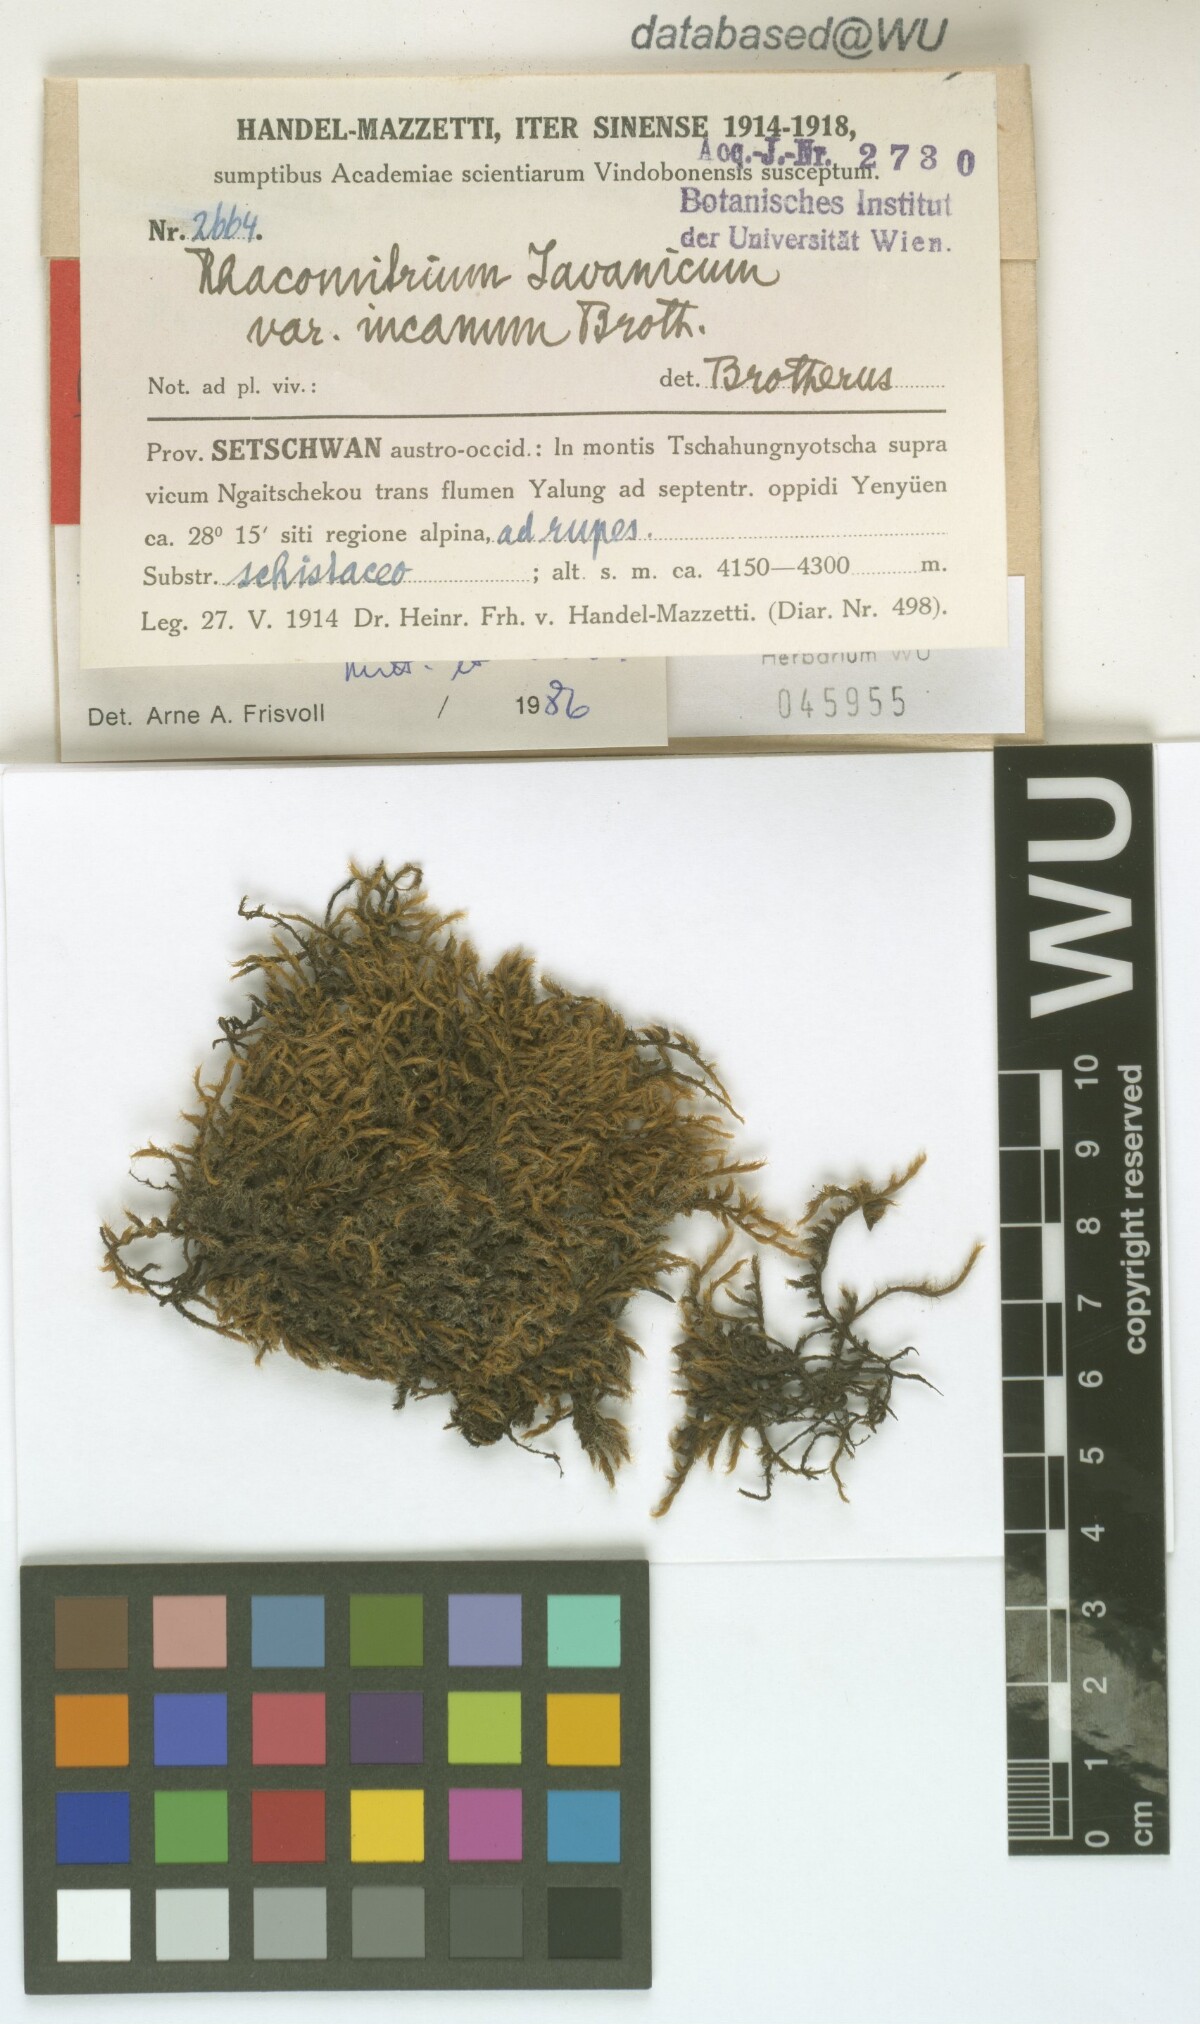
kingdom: Plantae
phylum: Bryophyta
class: Bryopsida
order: Grimmiales
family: Grimmiaceae
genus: Bucklandiella
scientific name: Bucklandiella subsecunda
